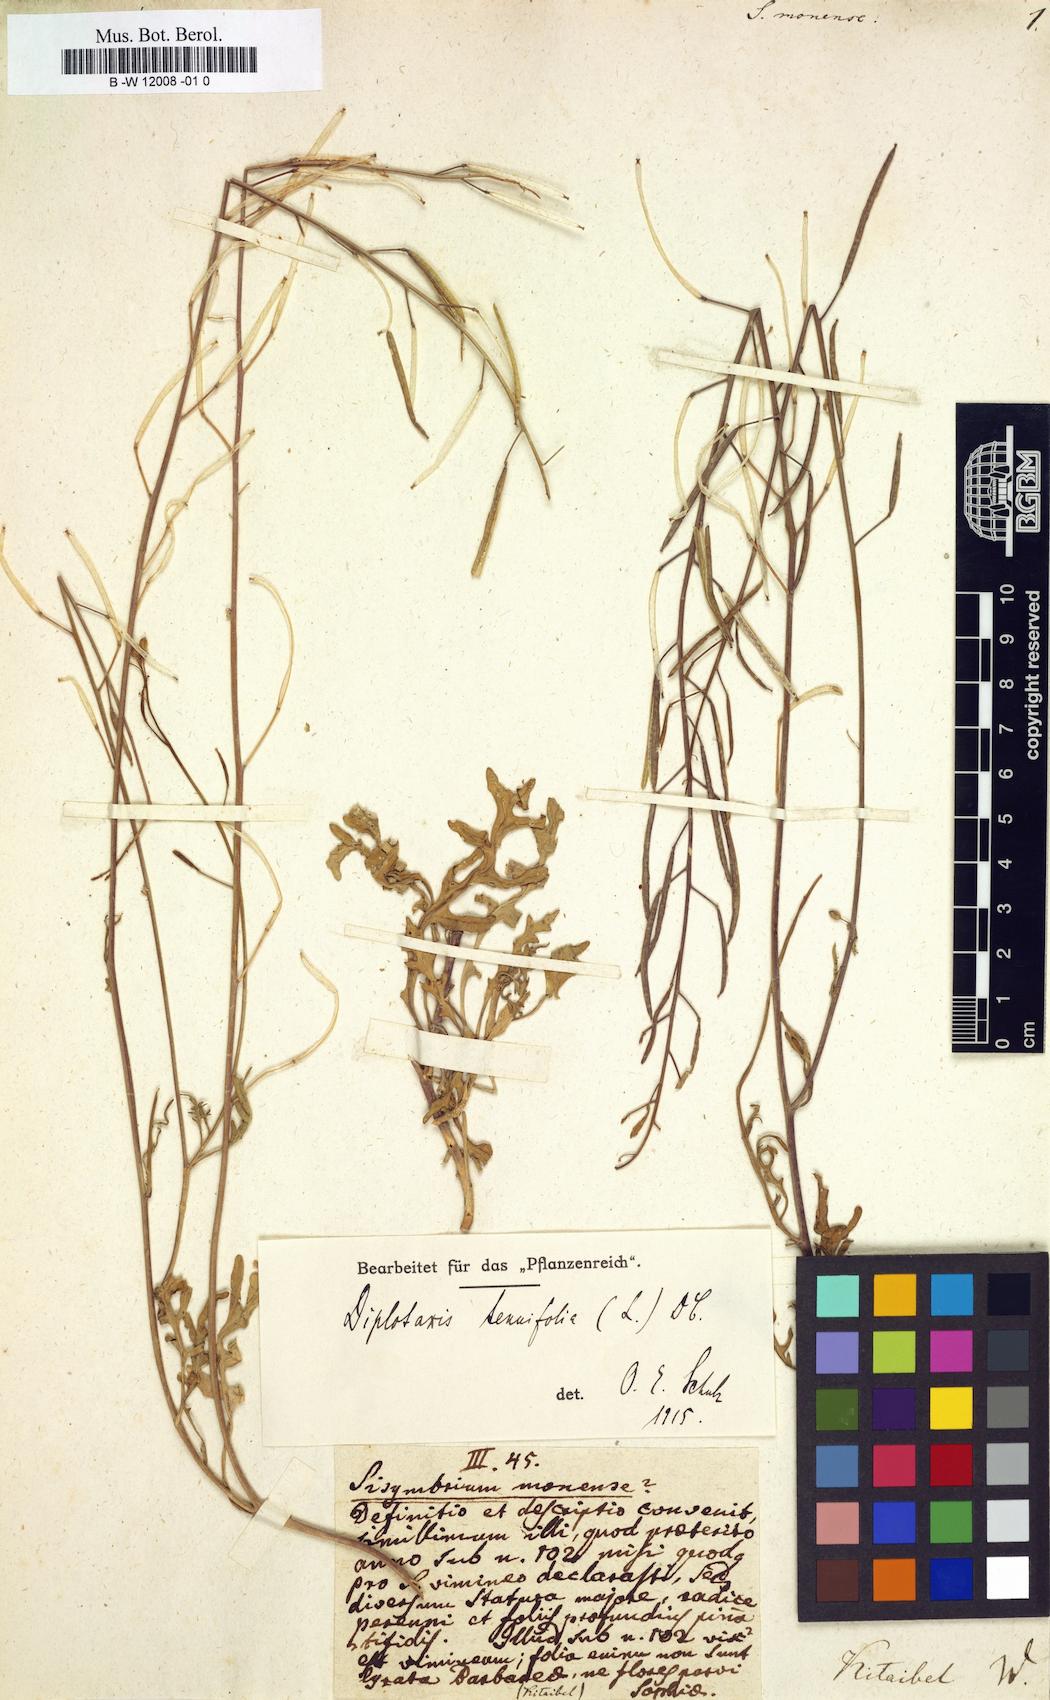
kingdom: Plantae
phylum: Tracheophyta
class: Magnoliopsida
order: Brassicales
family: Brassicaceae
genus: Sisymbrium
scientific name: Sisymbrium monense
